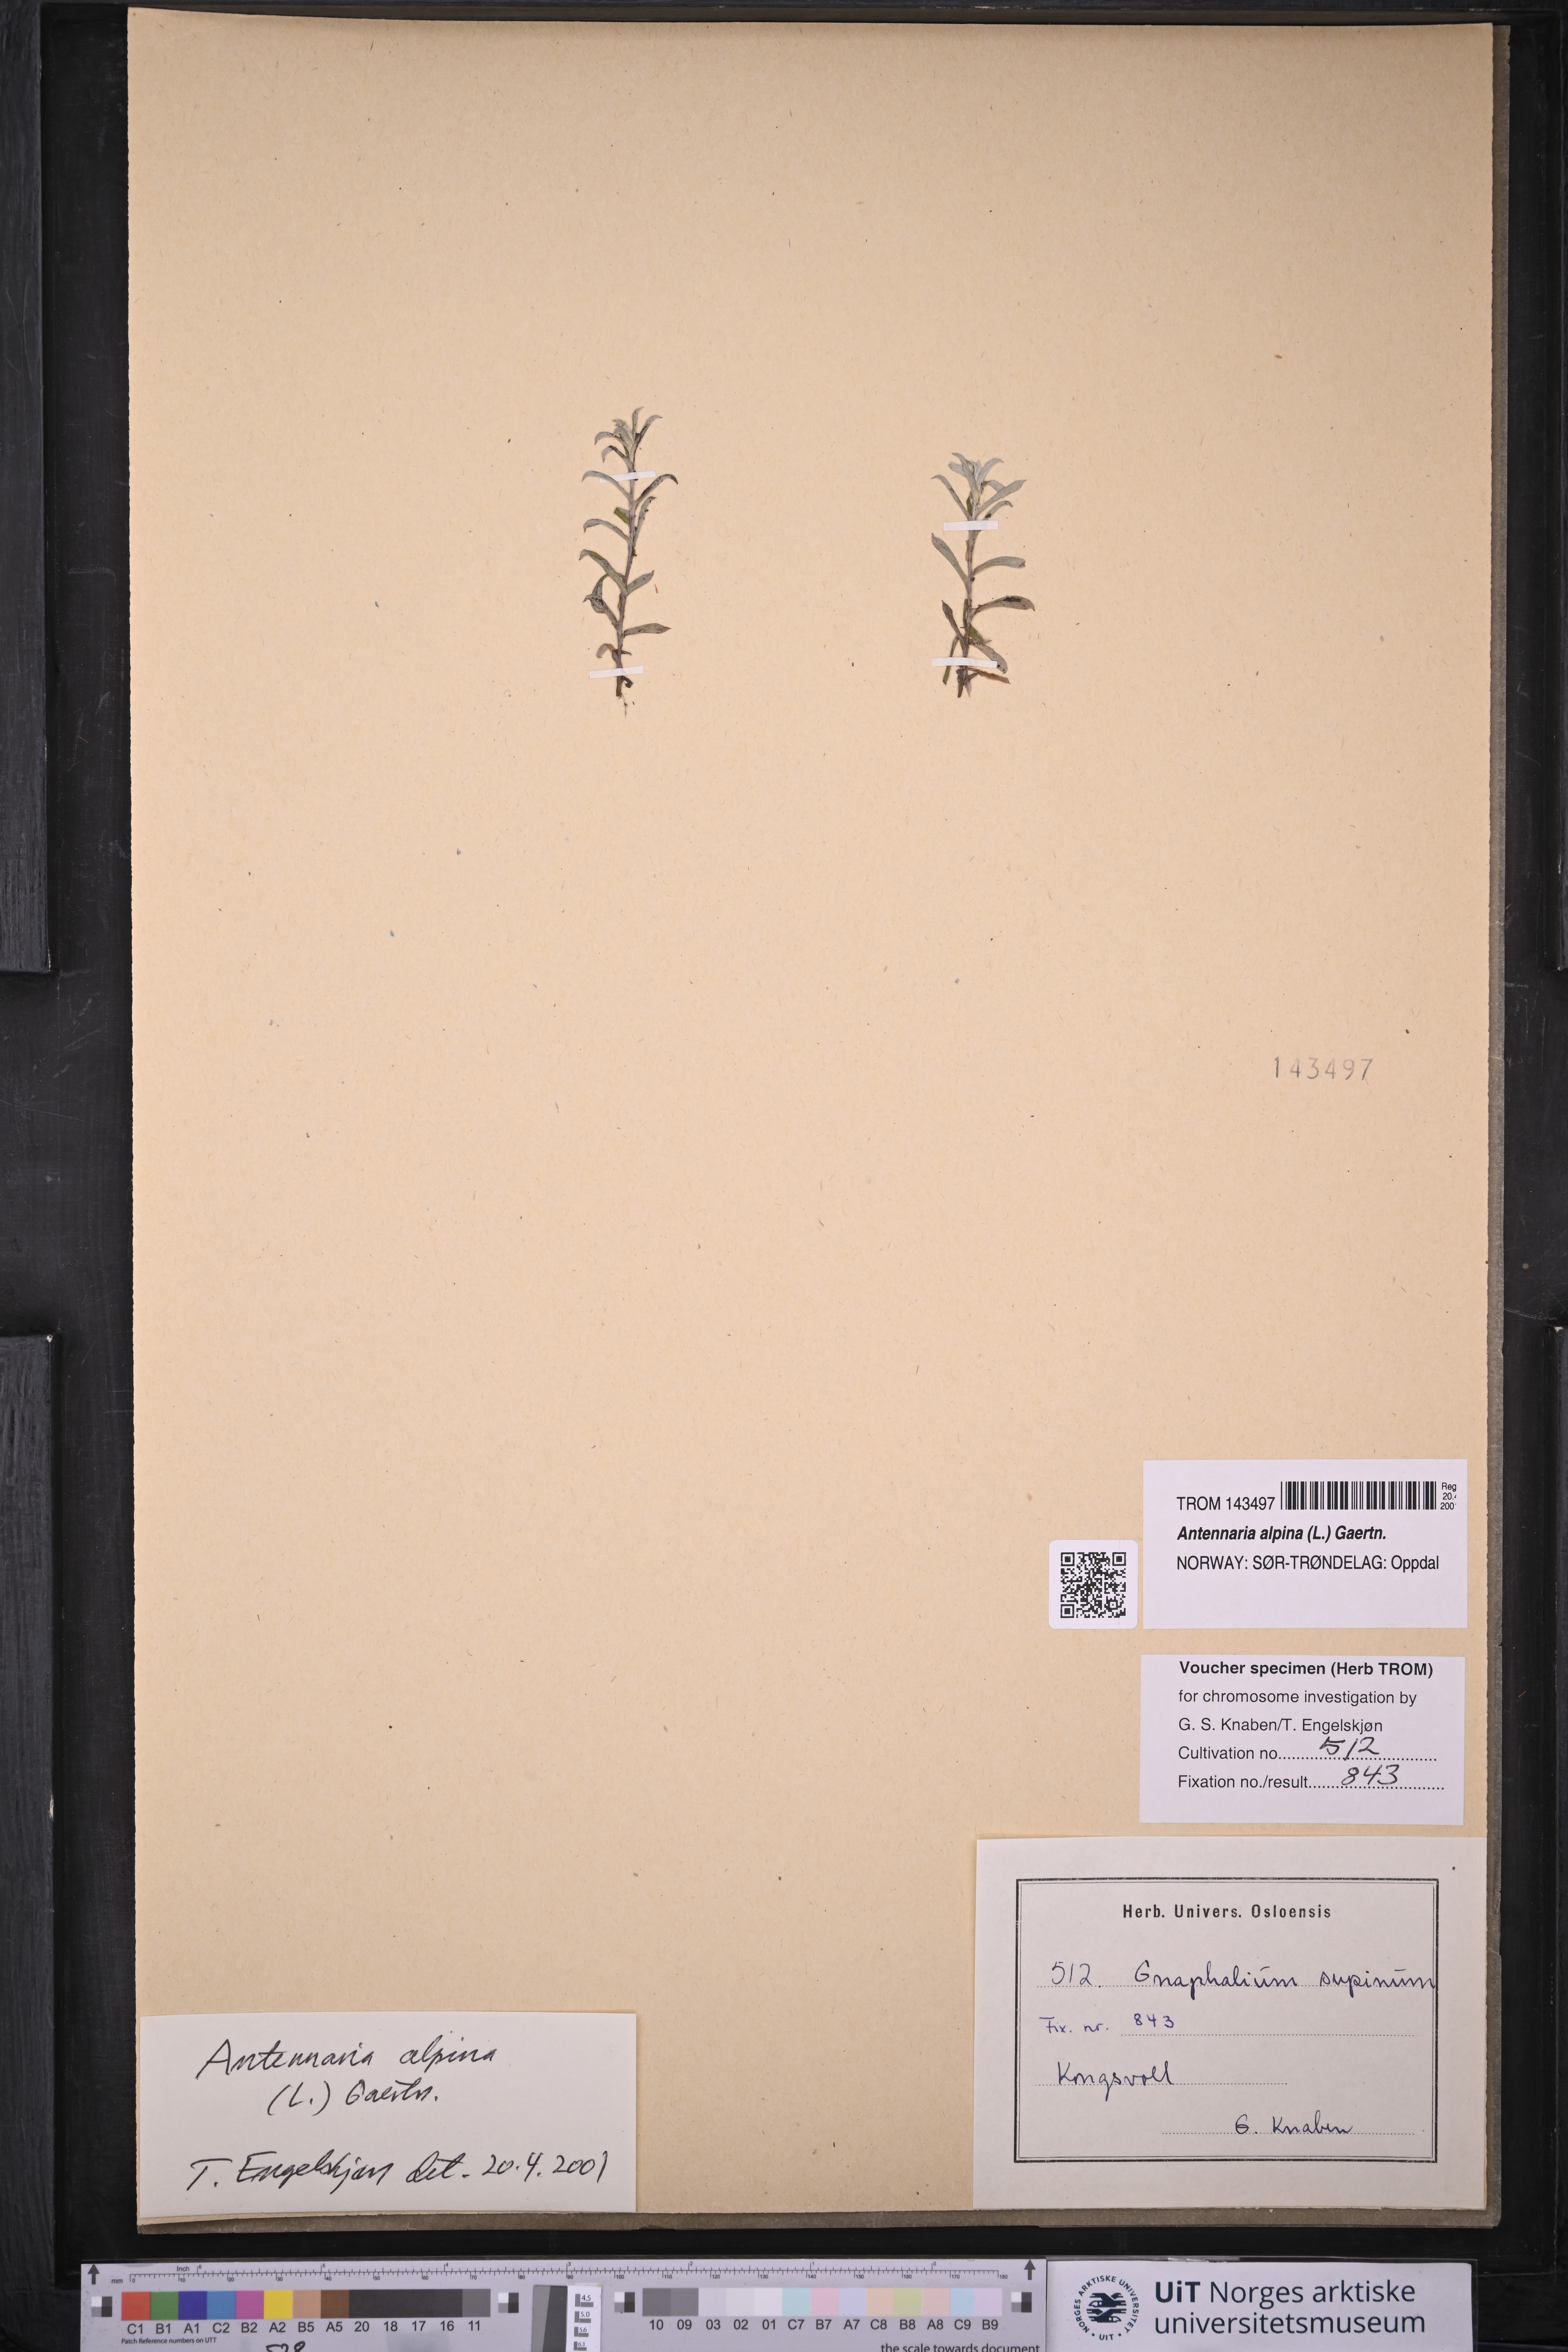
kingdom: Plantae
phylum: Tracheophyta
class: Magnoliopsida
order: Asterales
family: Asteraceae
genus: Antennaria
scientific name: Antennaria alpina
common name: Alpine pussytoes
